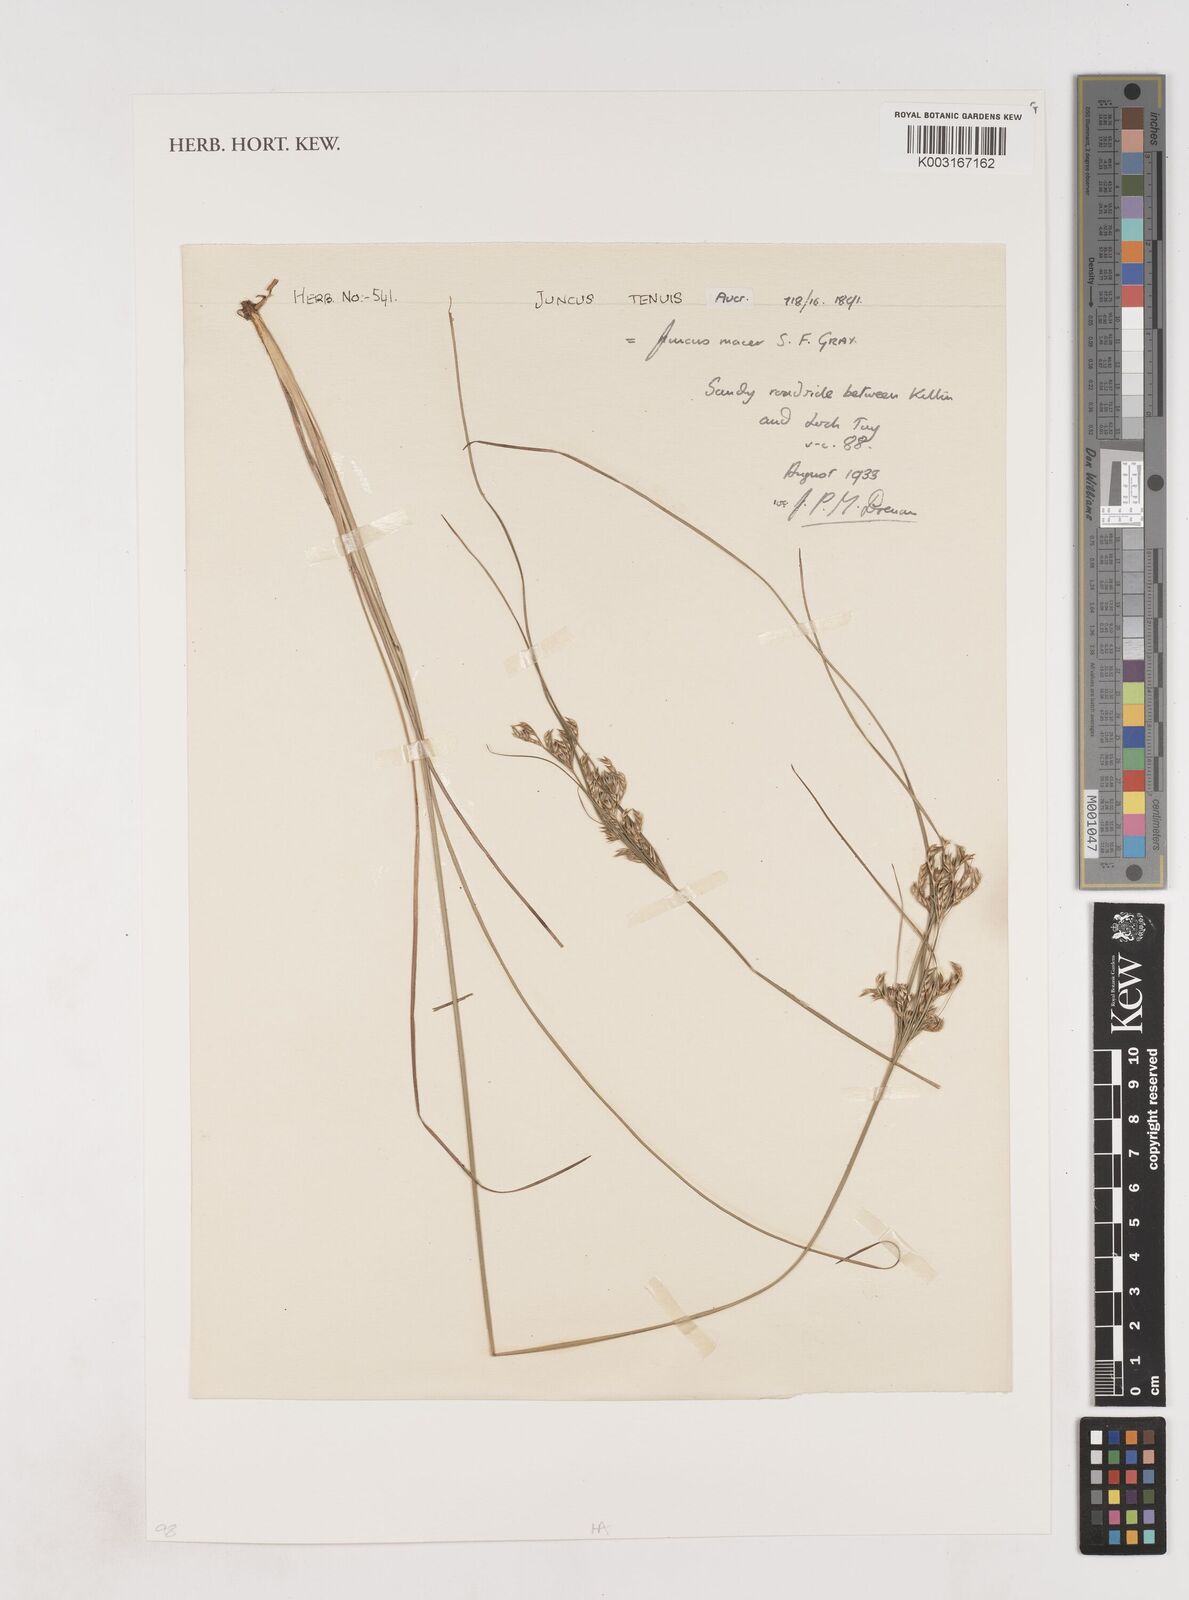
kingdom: Plantae
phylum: Tracheophyta
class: Liliopsida
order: Poales
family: Juncaceae
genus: Juncus
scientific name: Juncus tenuis
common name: Slender rush
